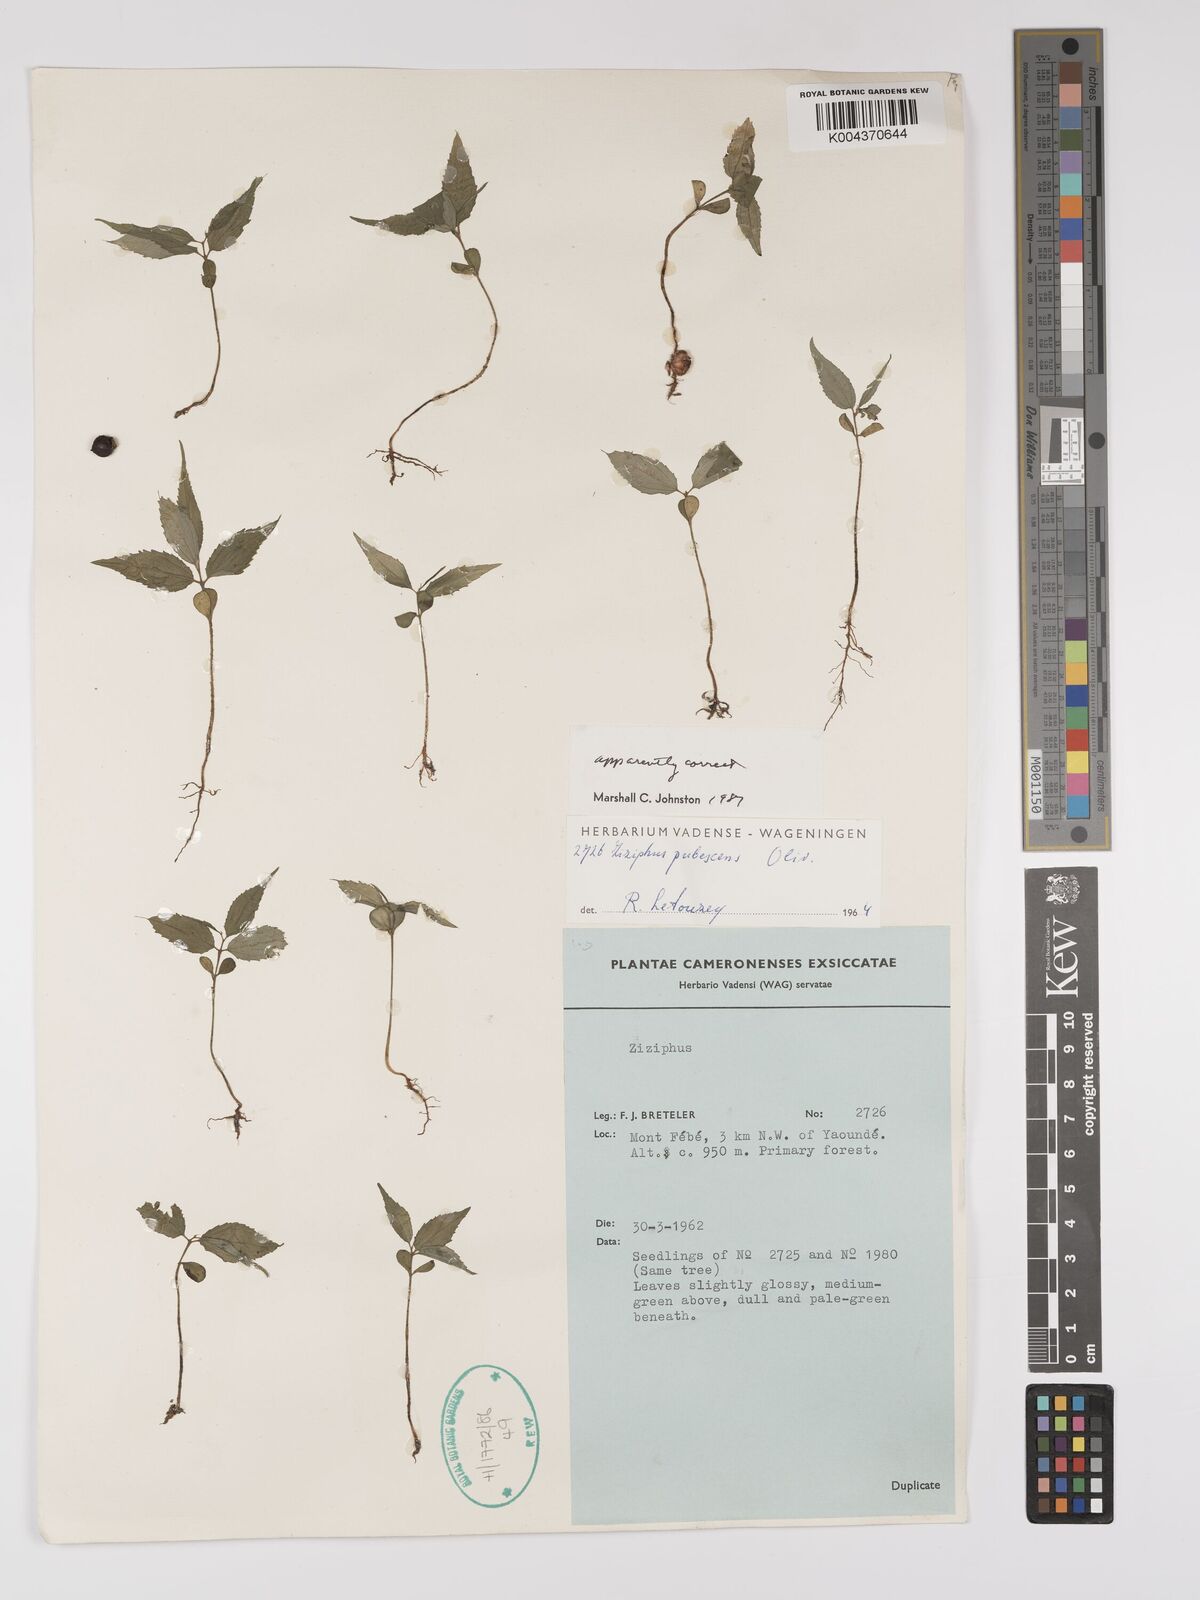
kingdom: Plantae
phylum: Tracheophyta
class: Magnoliopsida
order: Rosales
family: Rhamnaceae
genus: Ziziphus
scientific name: Ziziphus pubescens
